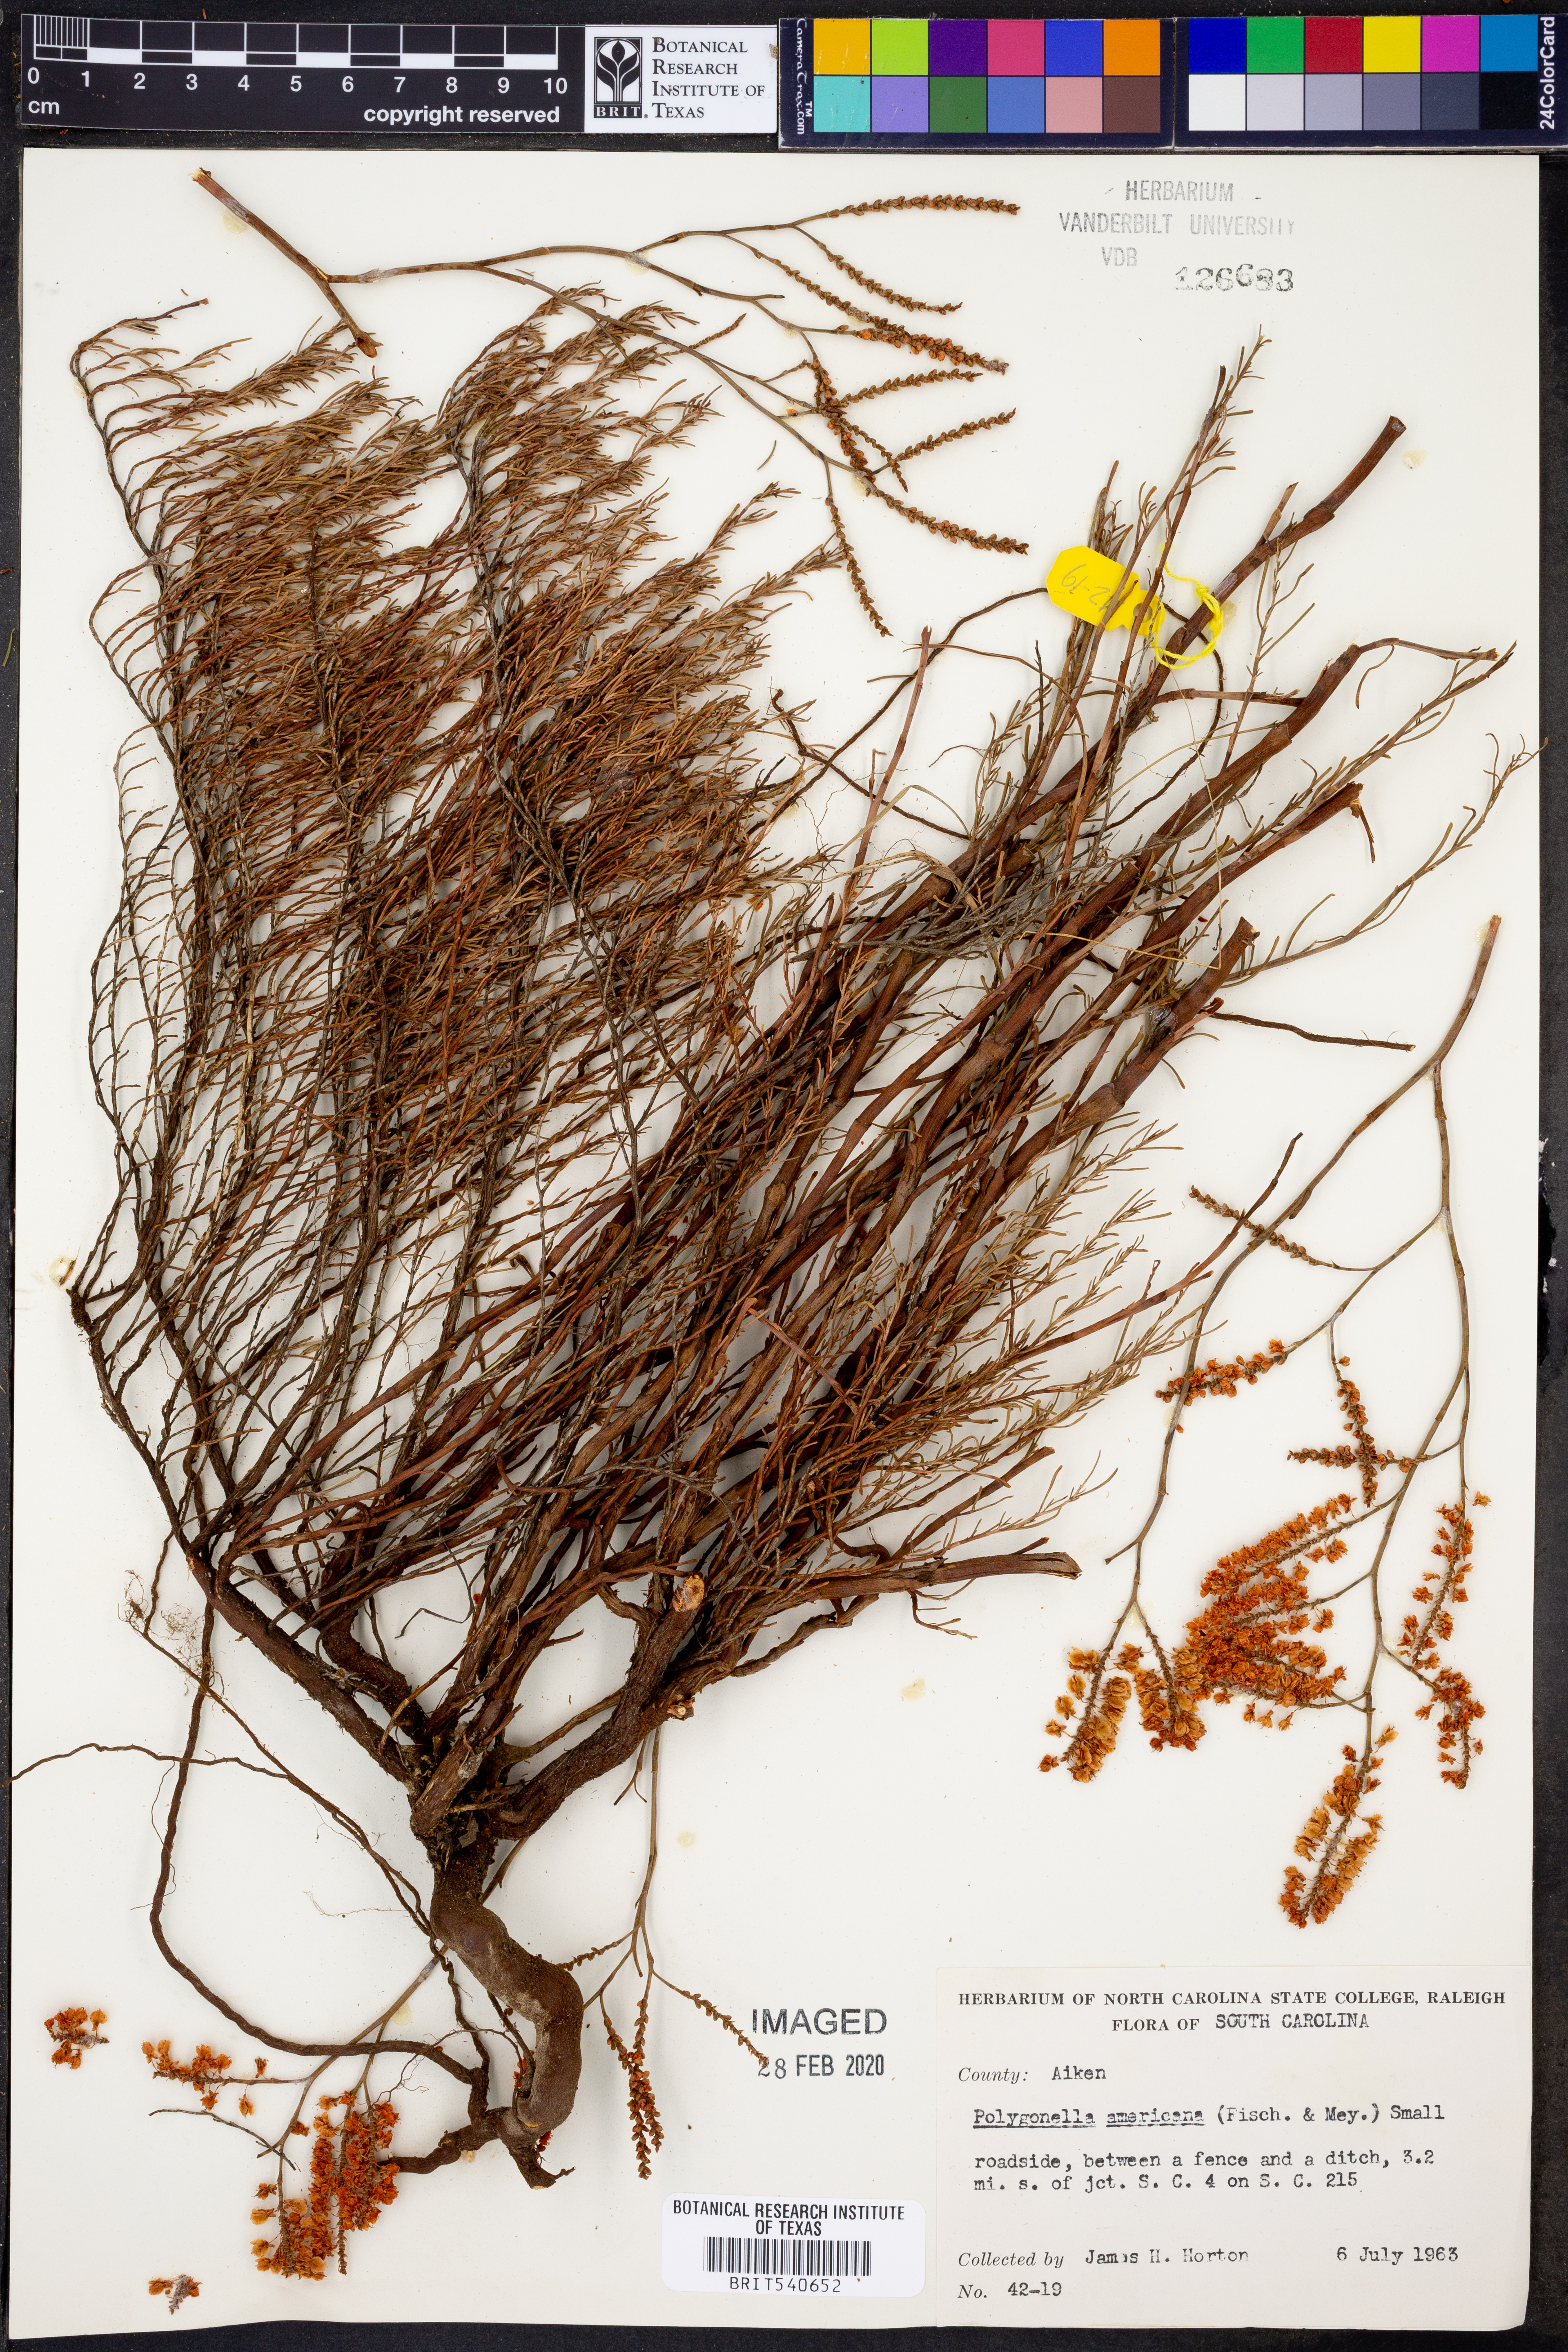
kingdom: Plantae
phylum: Tracheophyta
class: Magnoliopsida
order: Caryophyllales
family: Polygonaceae
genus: Polygonella
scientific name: Polygonella americana
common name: Southern jointweed
